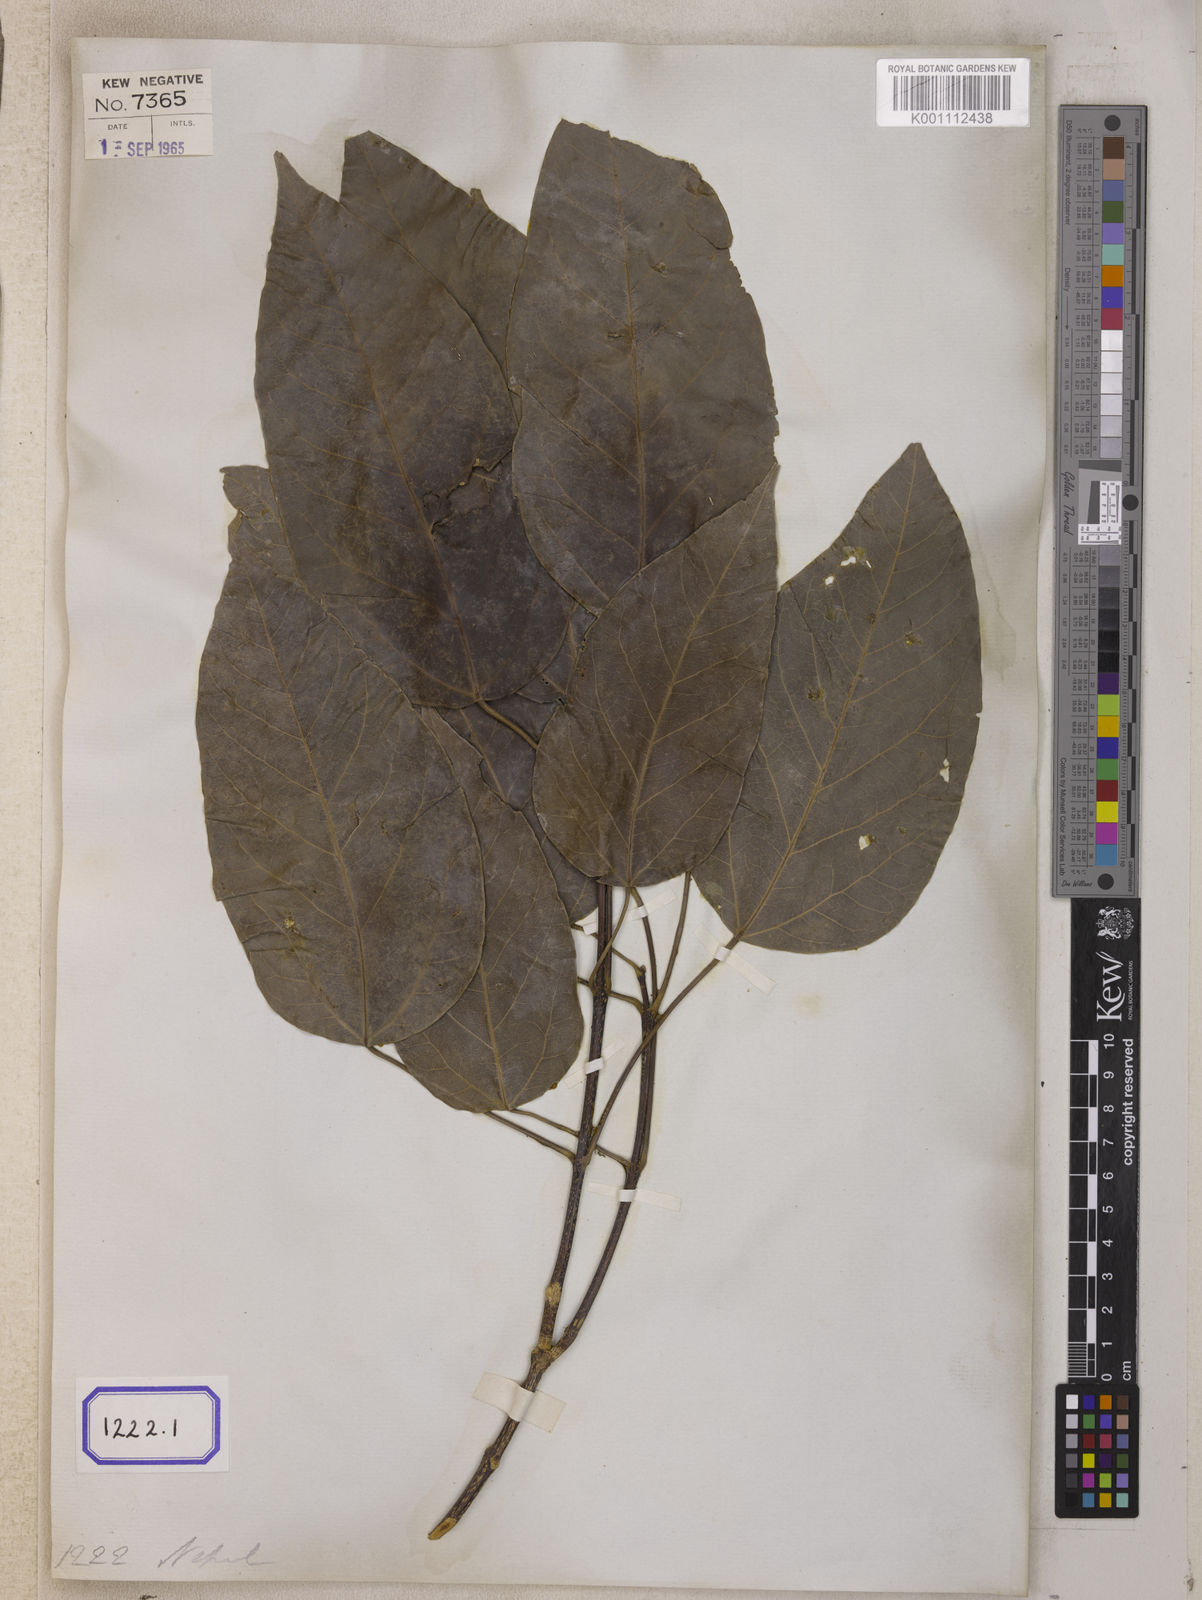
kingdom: Plantae
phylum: Tracheophyta
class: Magnoliopsida
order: Sapindales
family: Sapindaceae
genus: Acer
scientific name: Acer
